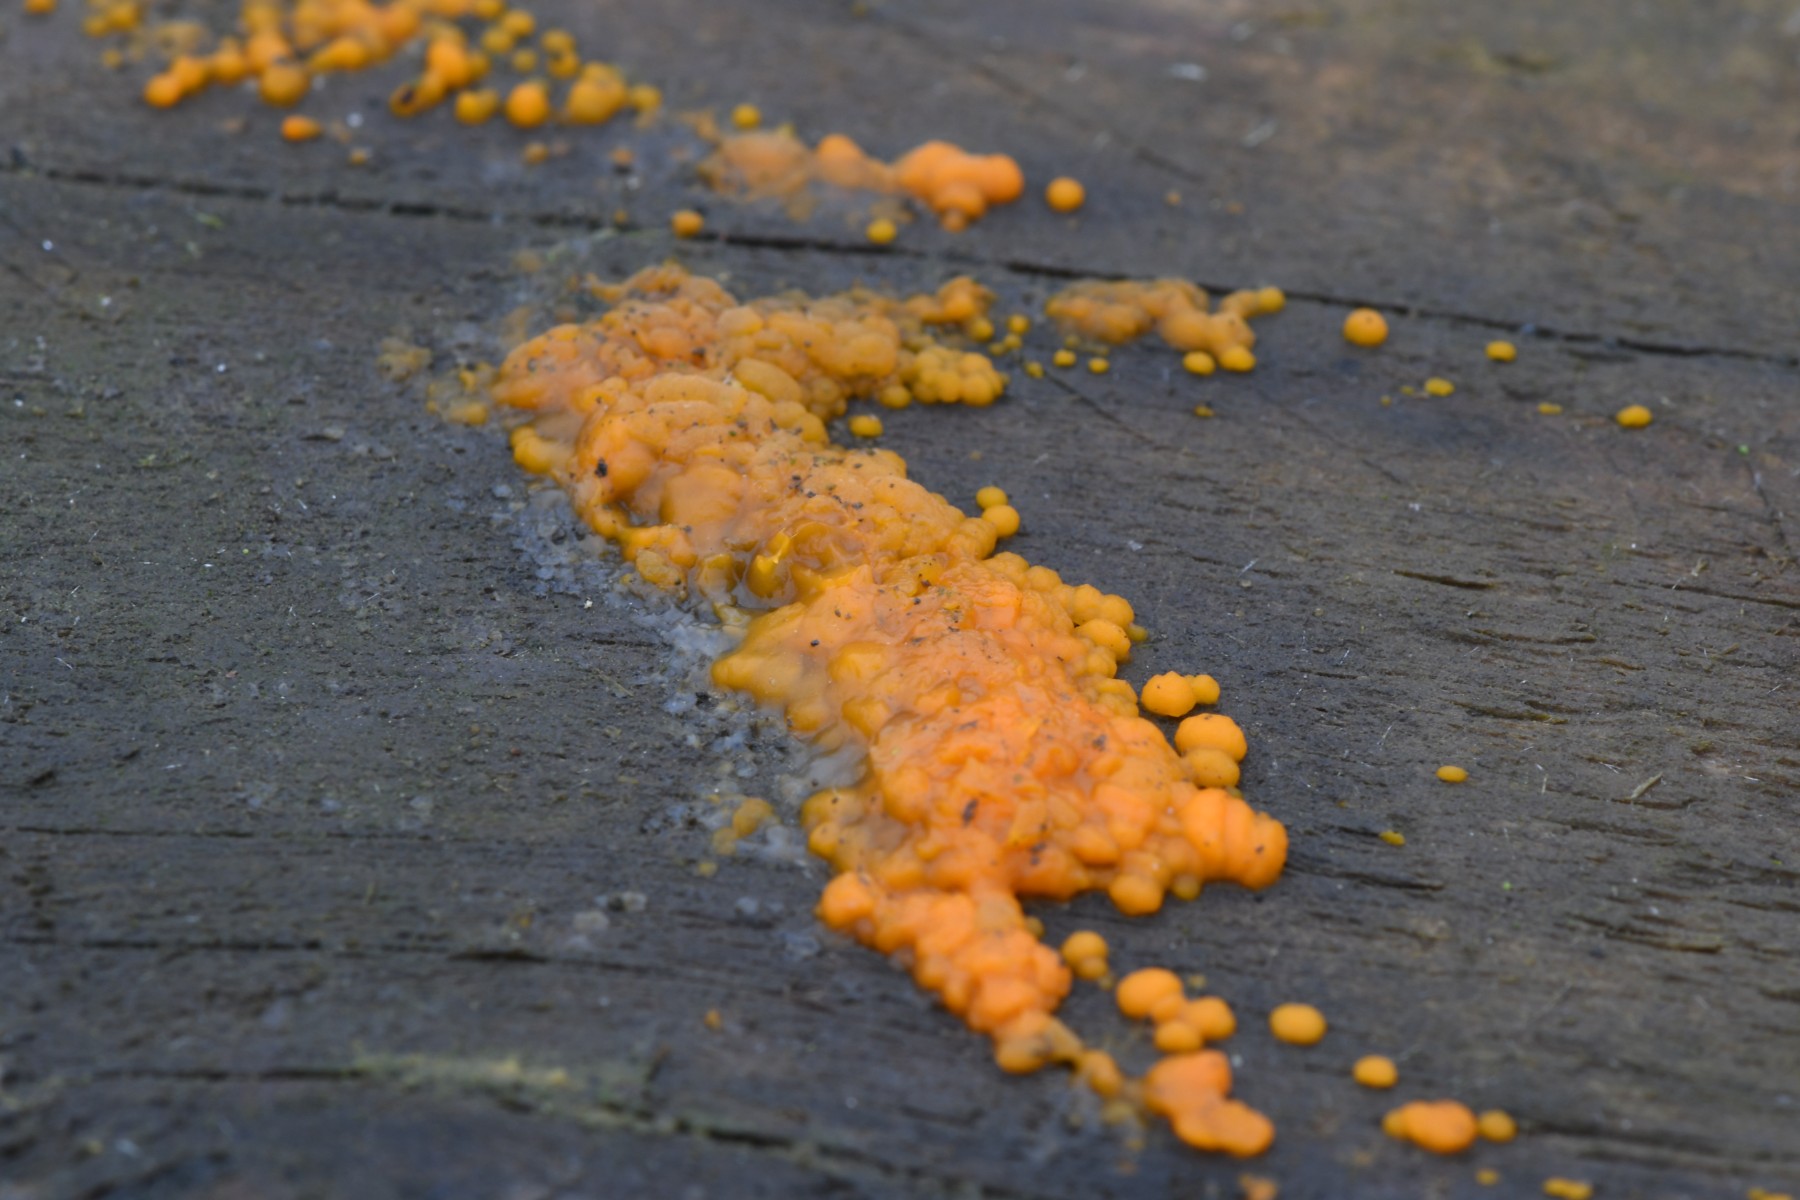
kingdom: Fungi
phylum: Basidiomycota
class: Dacrymycetes
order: Dacrymycetales
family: Dacrymycetaceae
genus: Dacrymyces
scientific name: Dacrymyces stillatus
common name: almindelig tåresvamp
